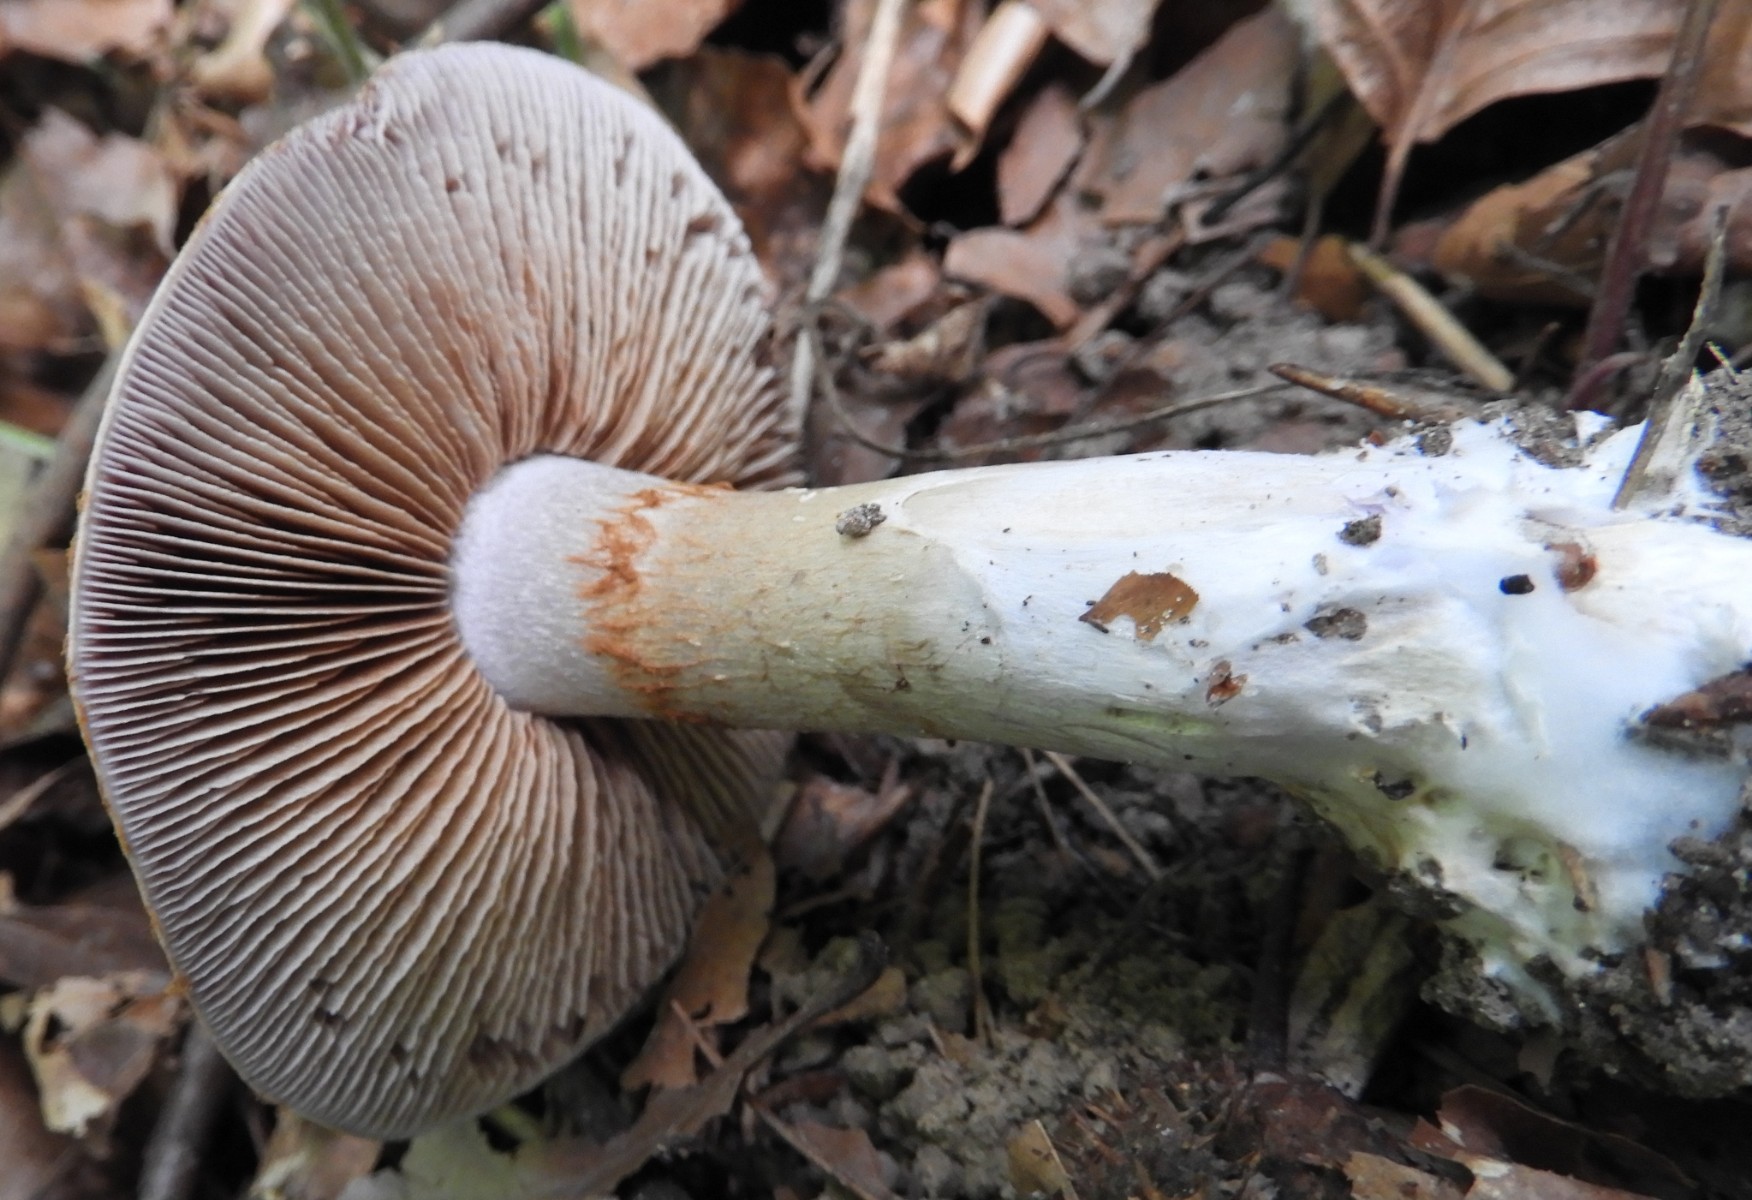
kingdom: Fungi
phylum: Basidiomycota
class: Agaricomycetes
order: Agaricales
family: Cortinariaceae
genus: Cortinarius
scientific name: Cortinarius largus
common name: violetrandet slørhat
